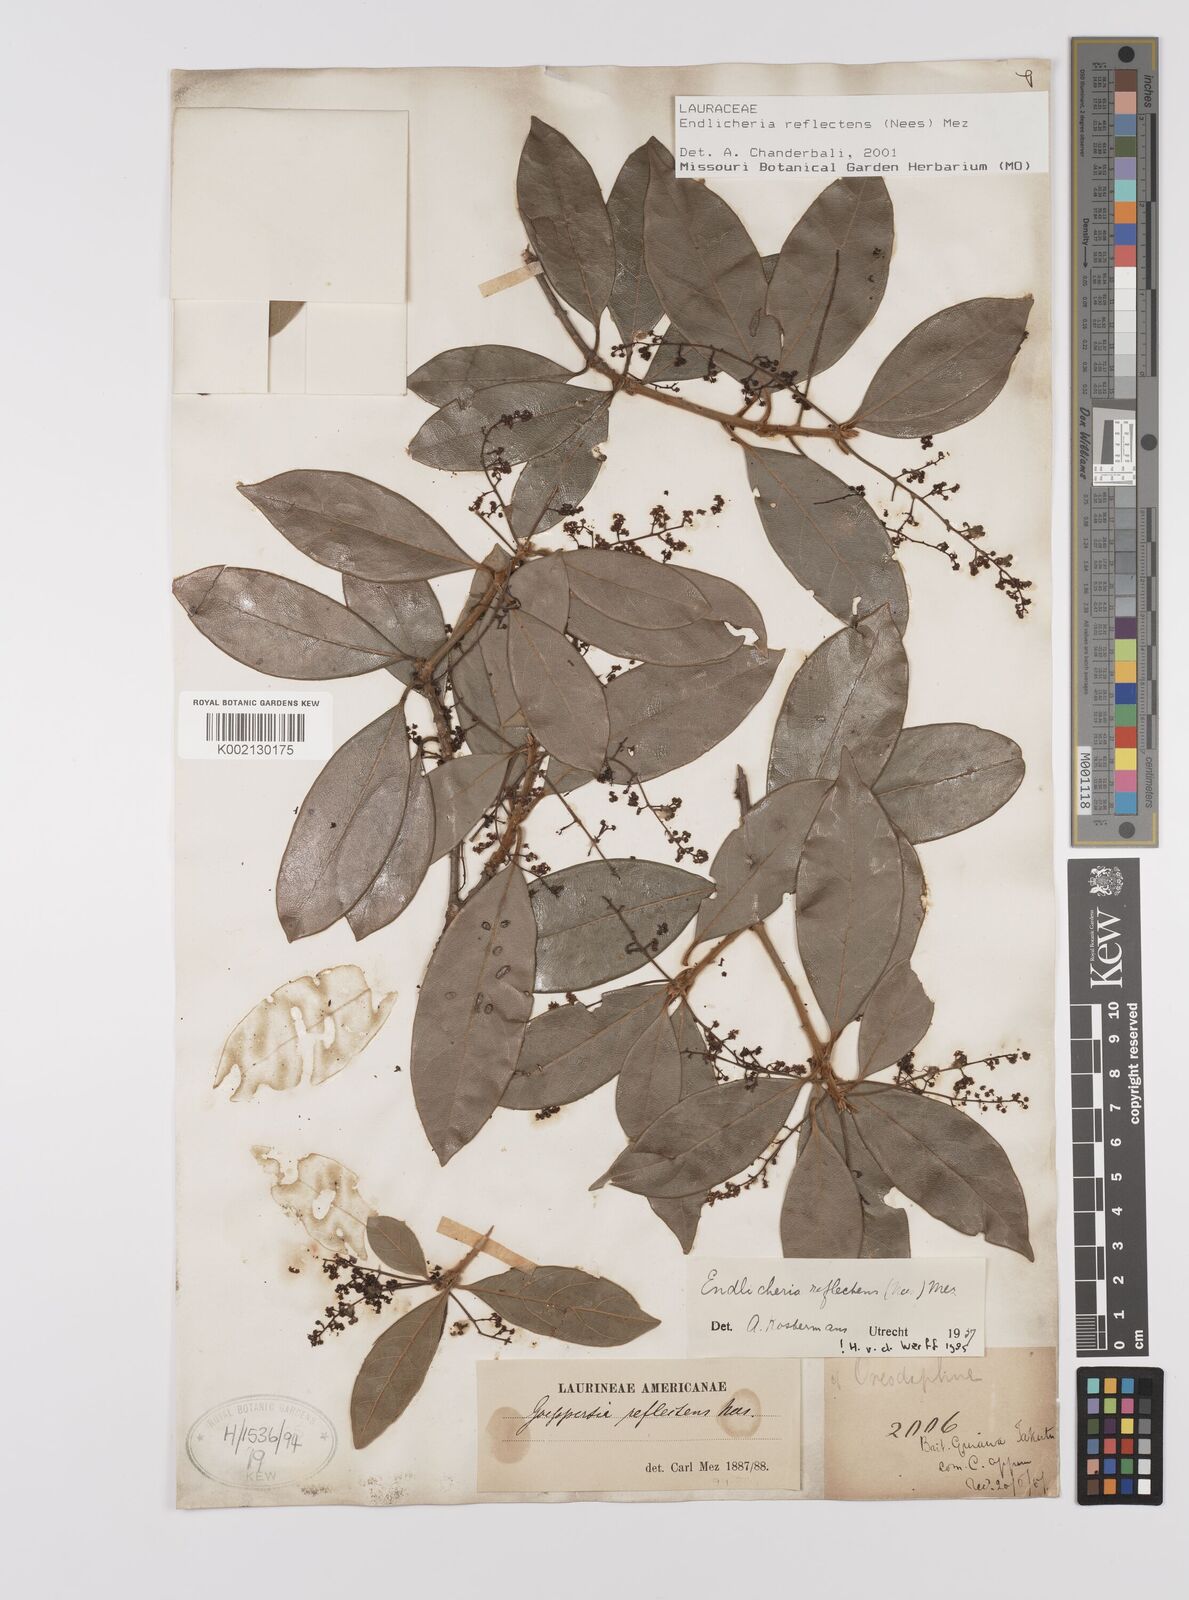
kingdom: Plantae
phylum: Tracheophyta
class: Magnoliopsida
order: Laurales
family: Lauraceae
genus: Endlicheria
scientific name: Endlicheria reflectens
